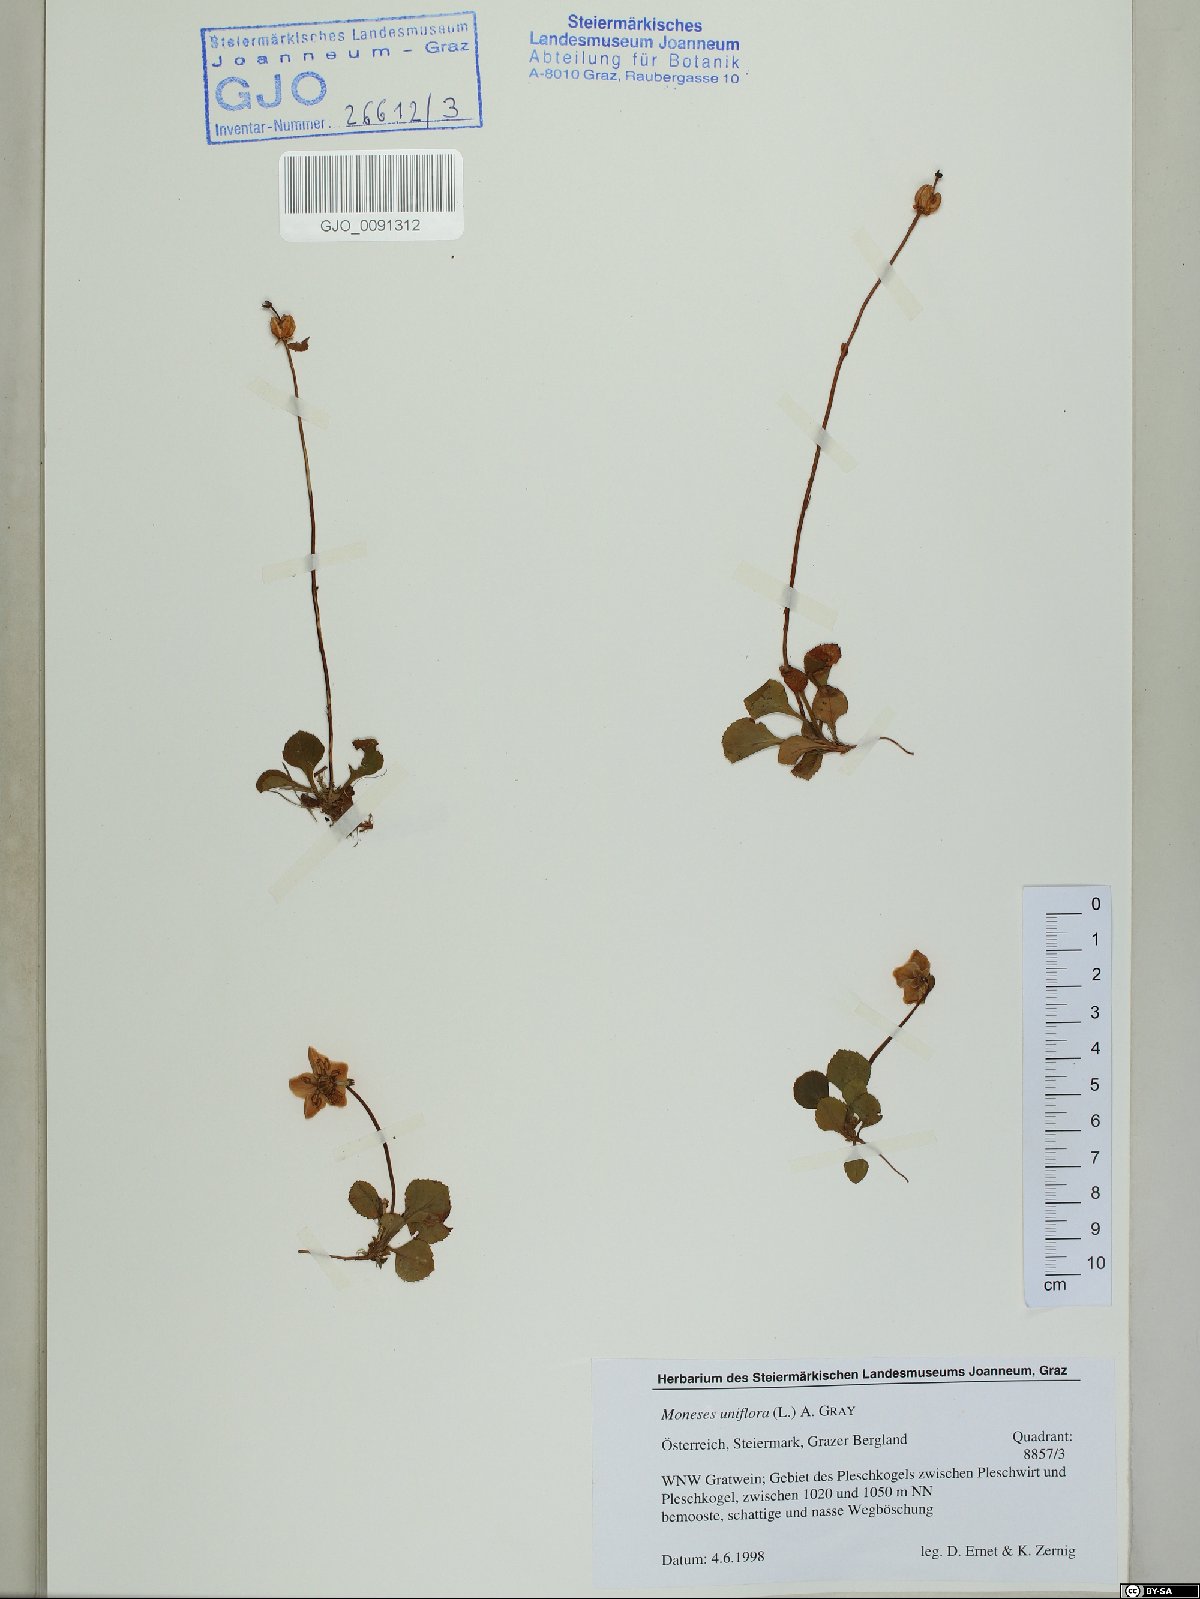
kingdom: Plantae
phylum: Tracheophyta
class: Magnoliopsida
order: Ericales
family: Ericaceae
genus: Moneses
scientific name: Moneses uniflora
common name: One-flowered wintergreen
